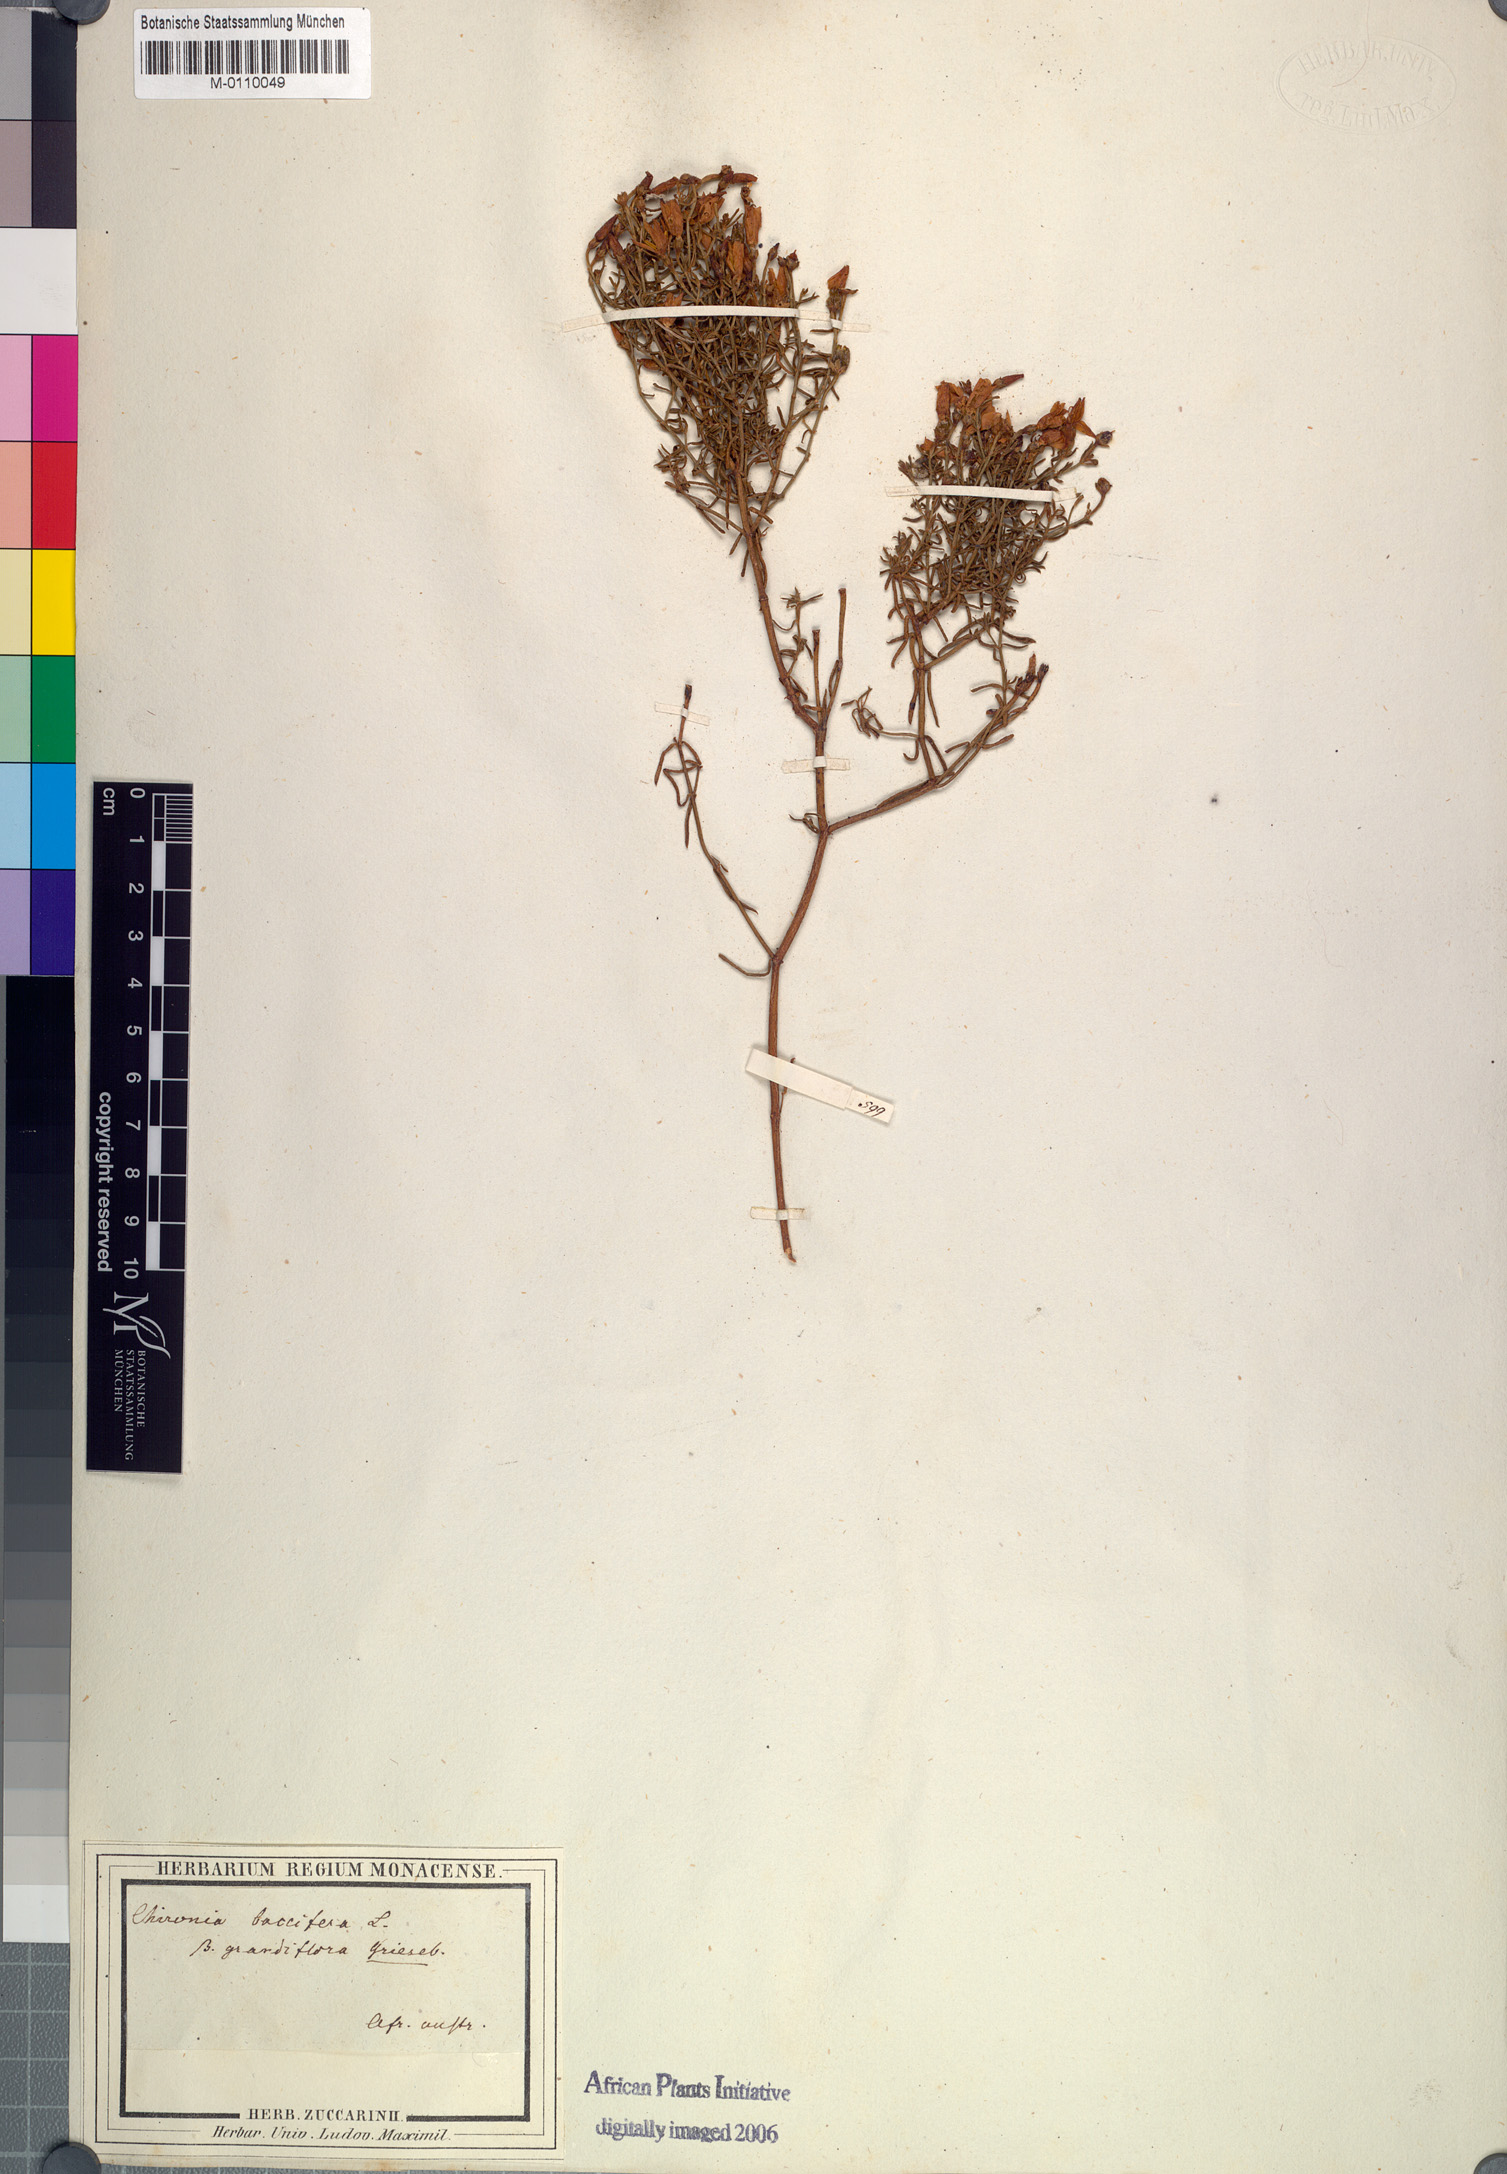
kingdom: Plantae
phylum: Tracheophyta
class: Magnoliopsida
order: Gentianales
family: Gentianaceae
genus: Chironia
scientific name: Chironia baccifera
